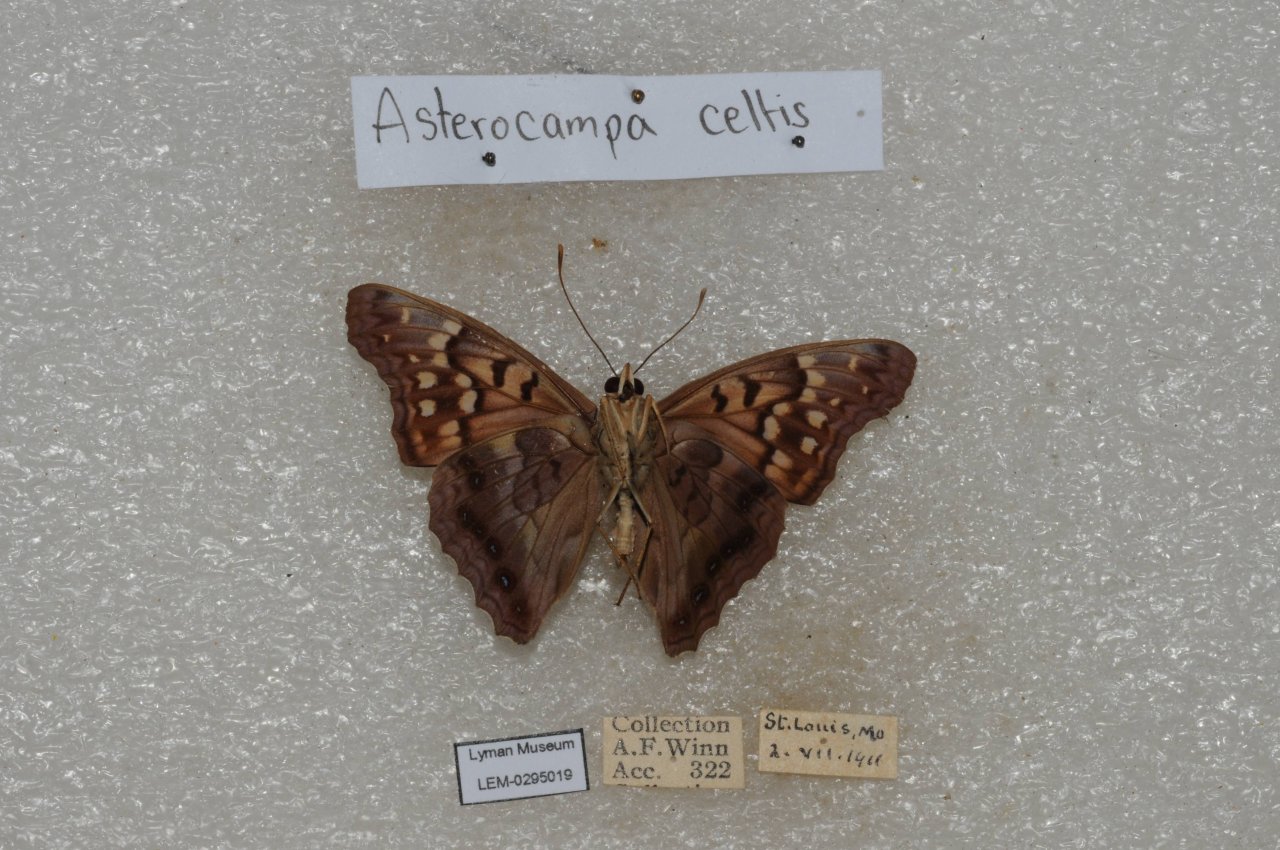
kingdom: Animalia
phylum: Arthropoda
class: Insecta
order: Lepidoptera
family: Nymphalidae
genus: Asterocampa
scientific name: Asterocampa clyton
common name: Tawny Emperor
